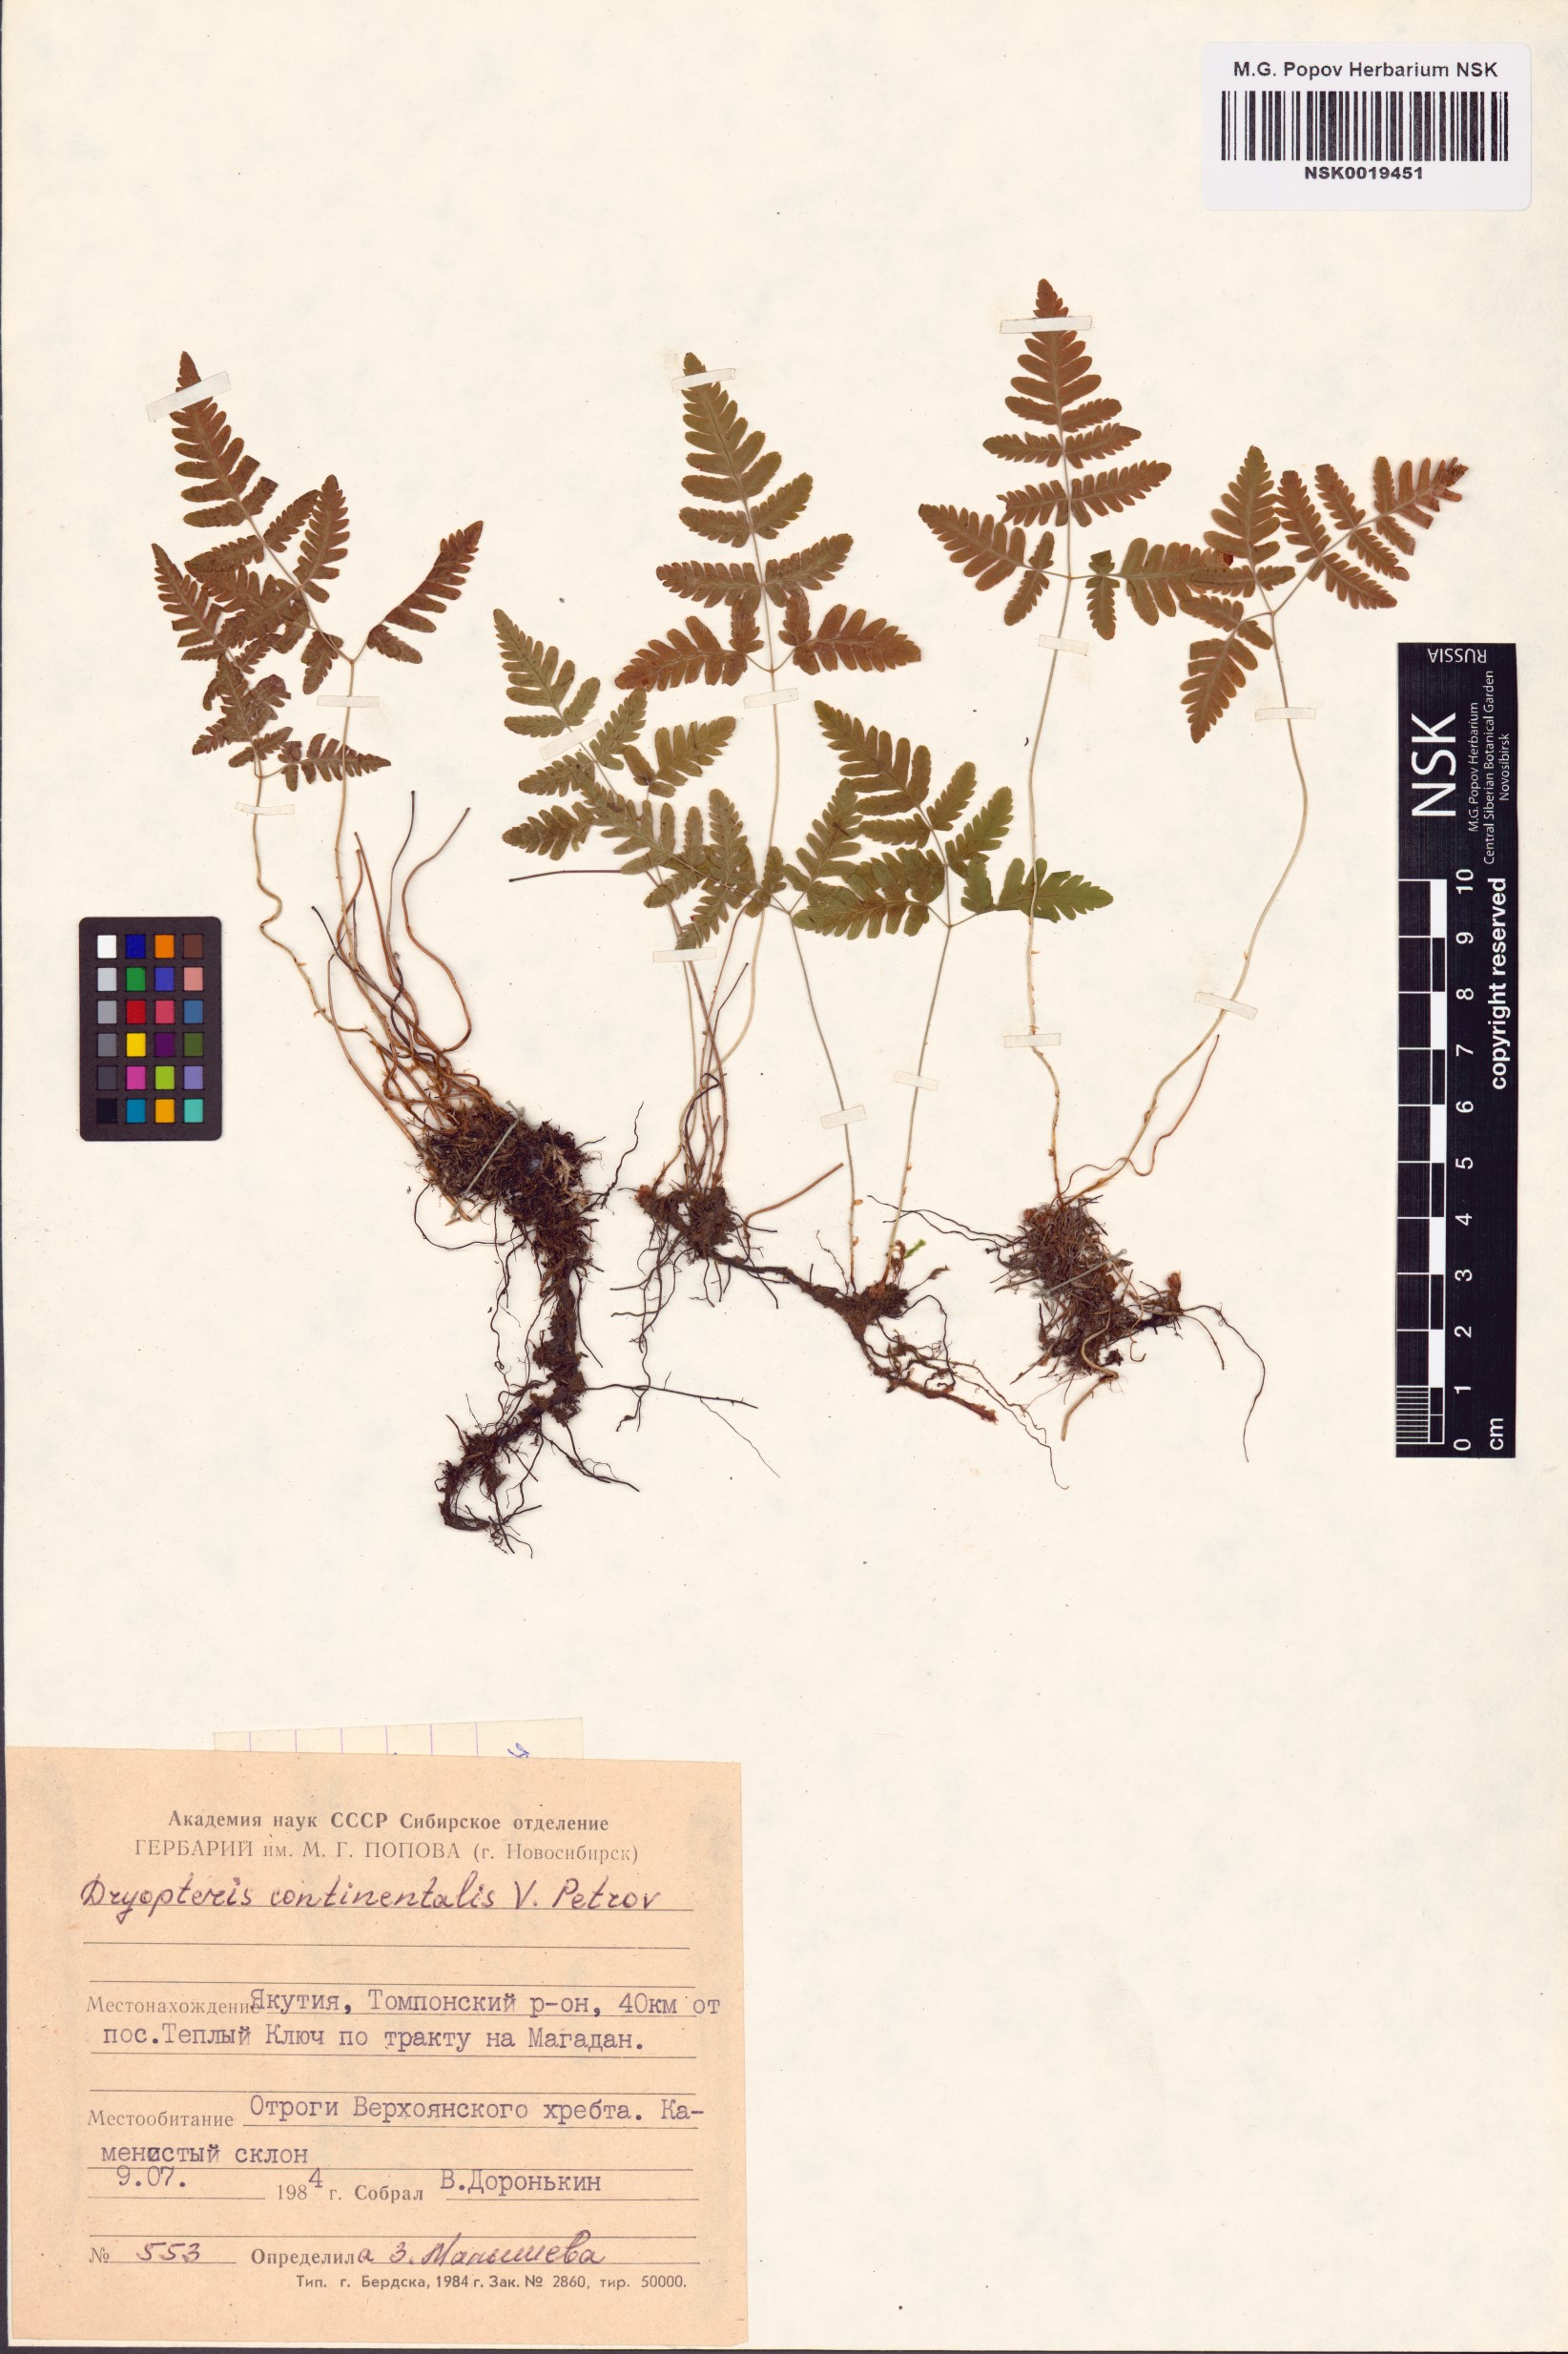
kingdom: Plantae
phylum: Tracheophyta
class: Polypodiopsida
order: Polypodiales
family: Cystopteridaceae
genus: Gymnocarpium
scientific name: Gymnocarpium continentale
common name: Asian oak fern
